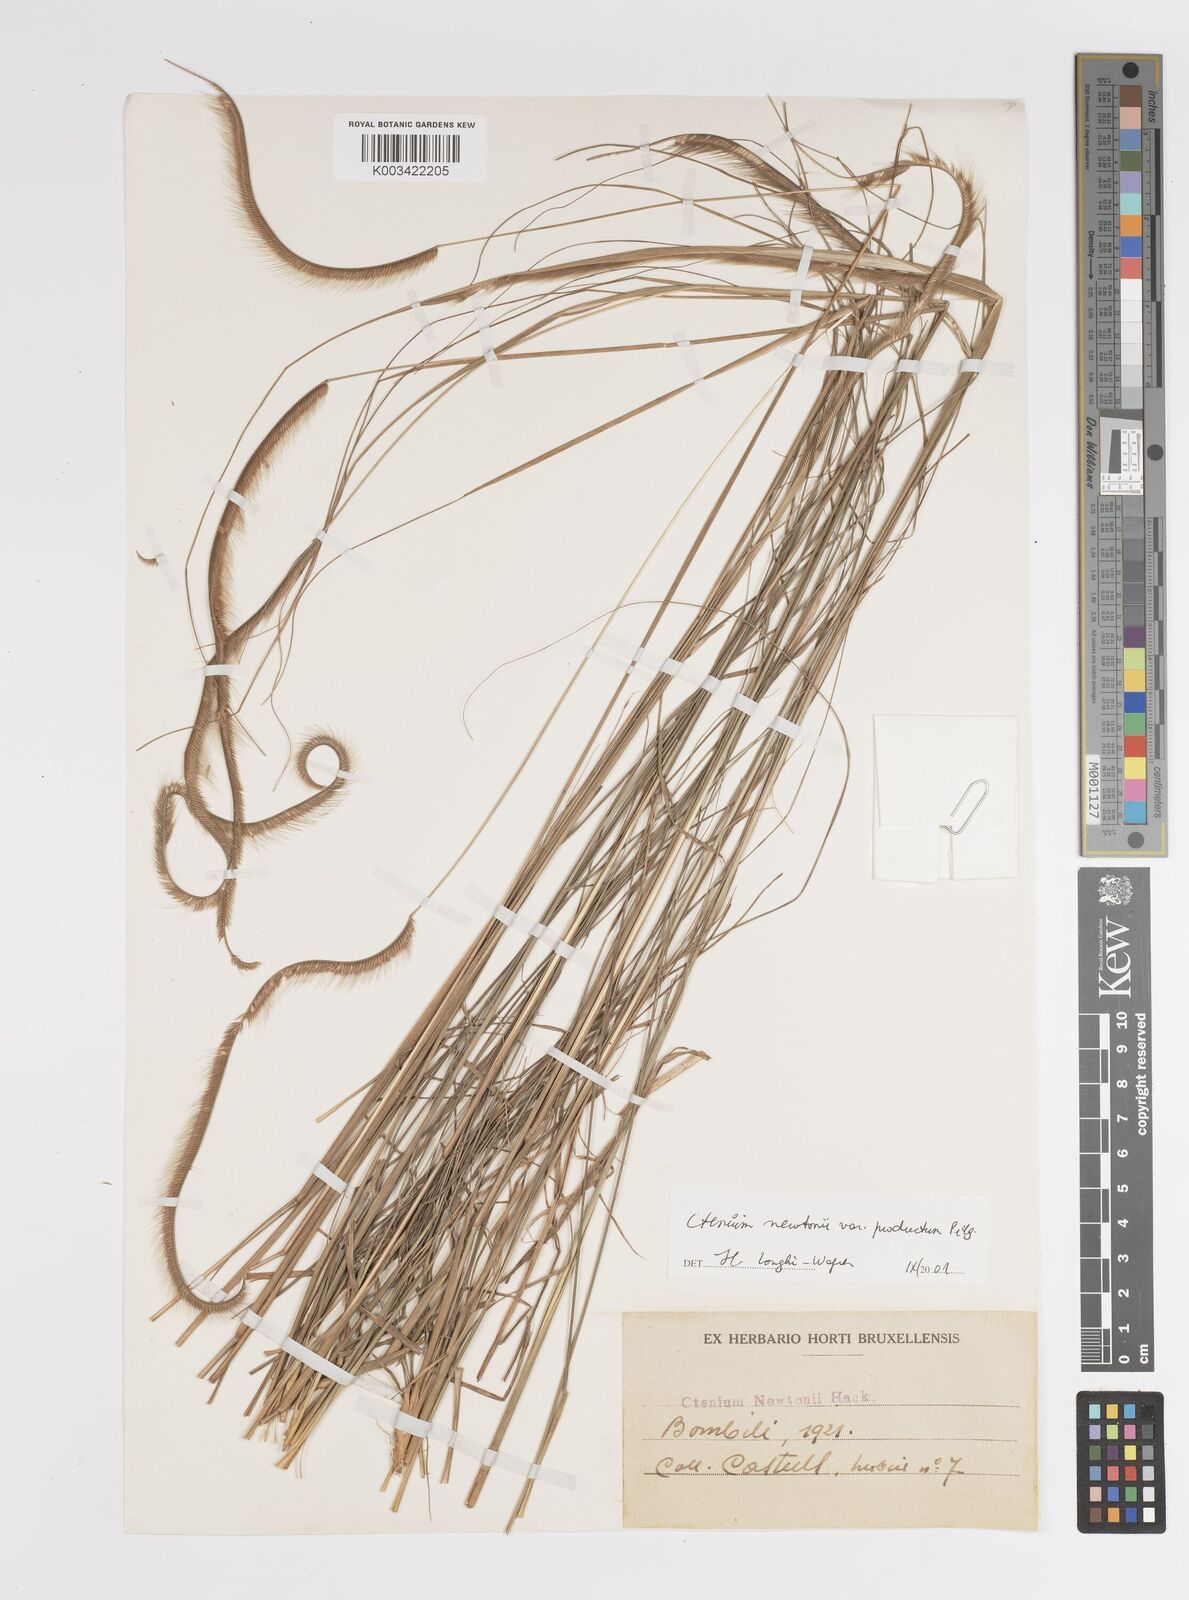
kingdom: Plantae
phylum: Tracheophyta
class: Liliopsida
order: Poales
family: Poaceae
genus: Ctenium
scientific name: Ctenium newtonii
